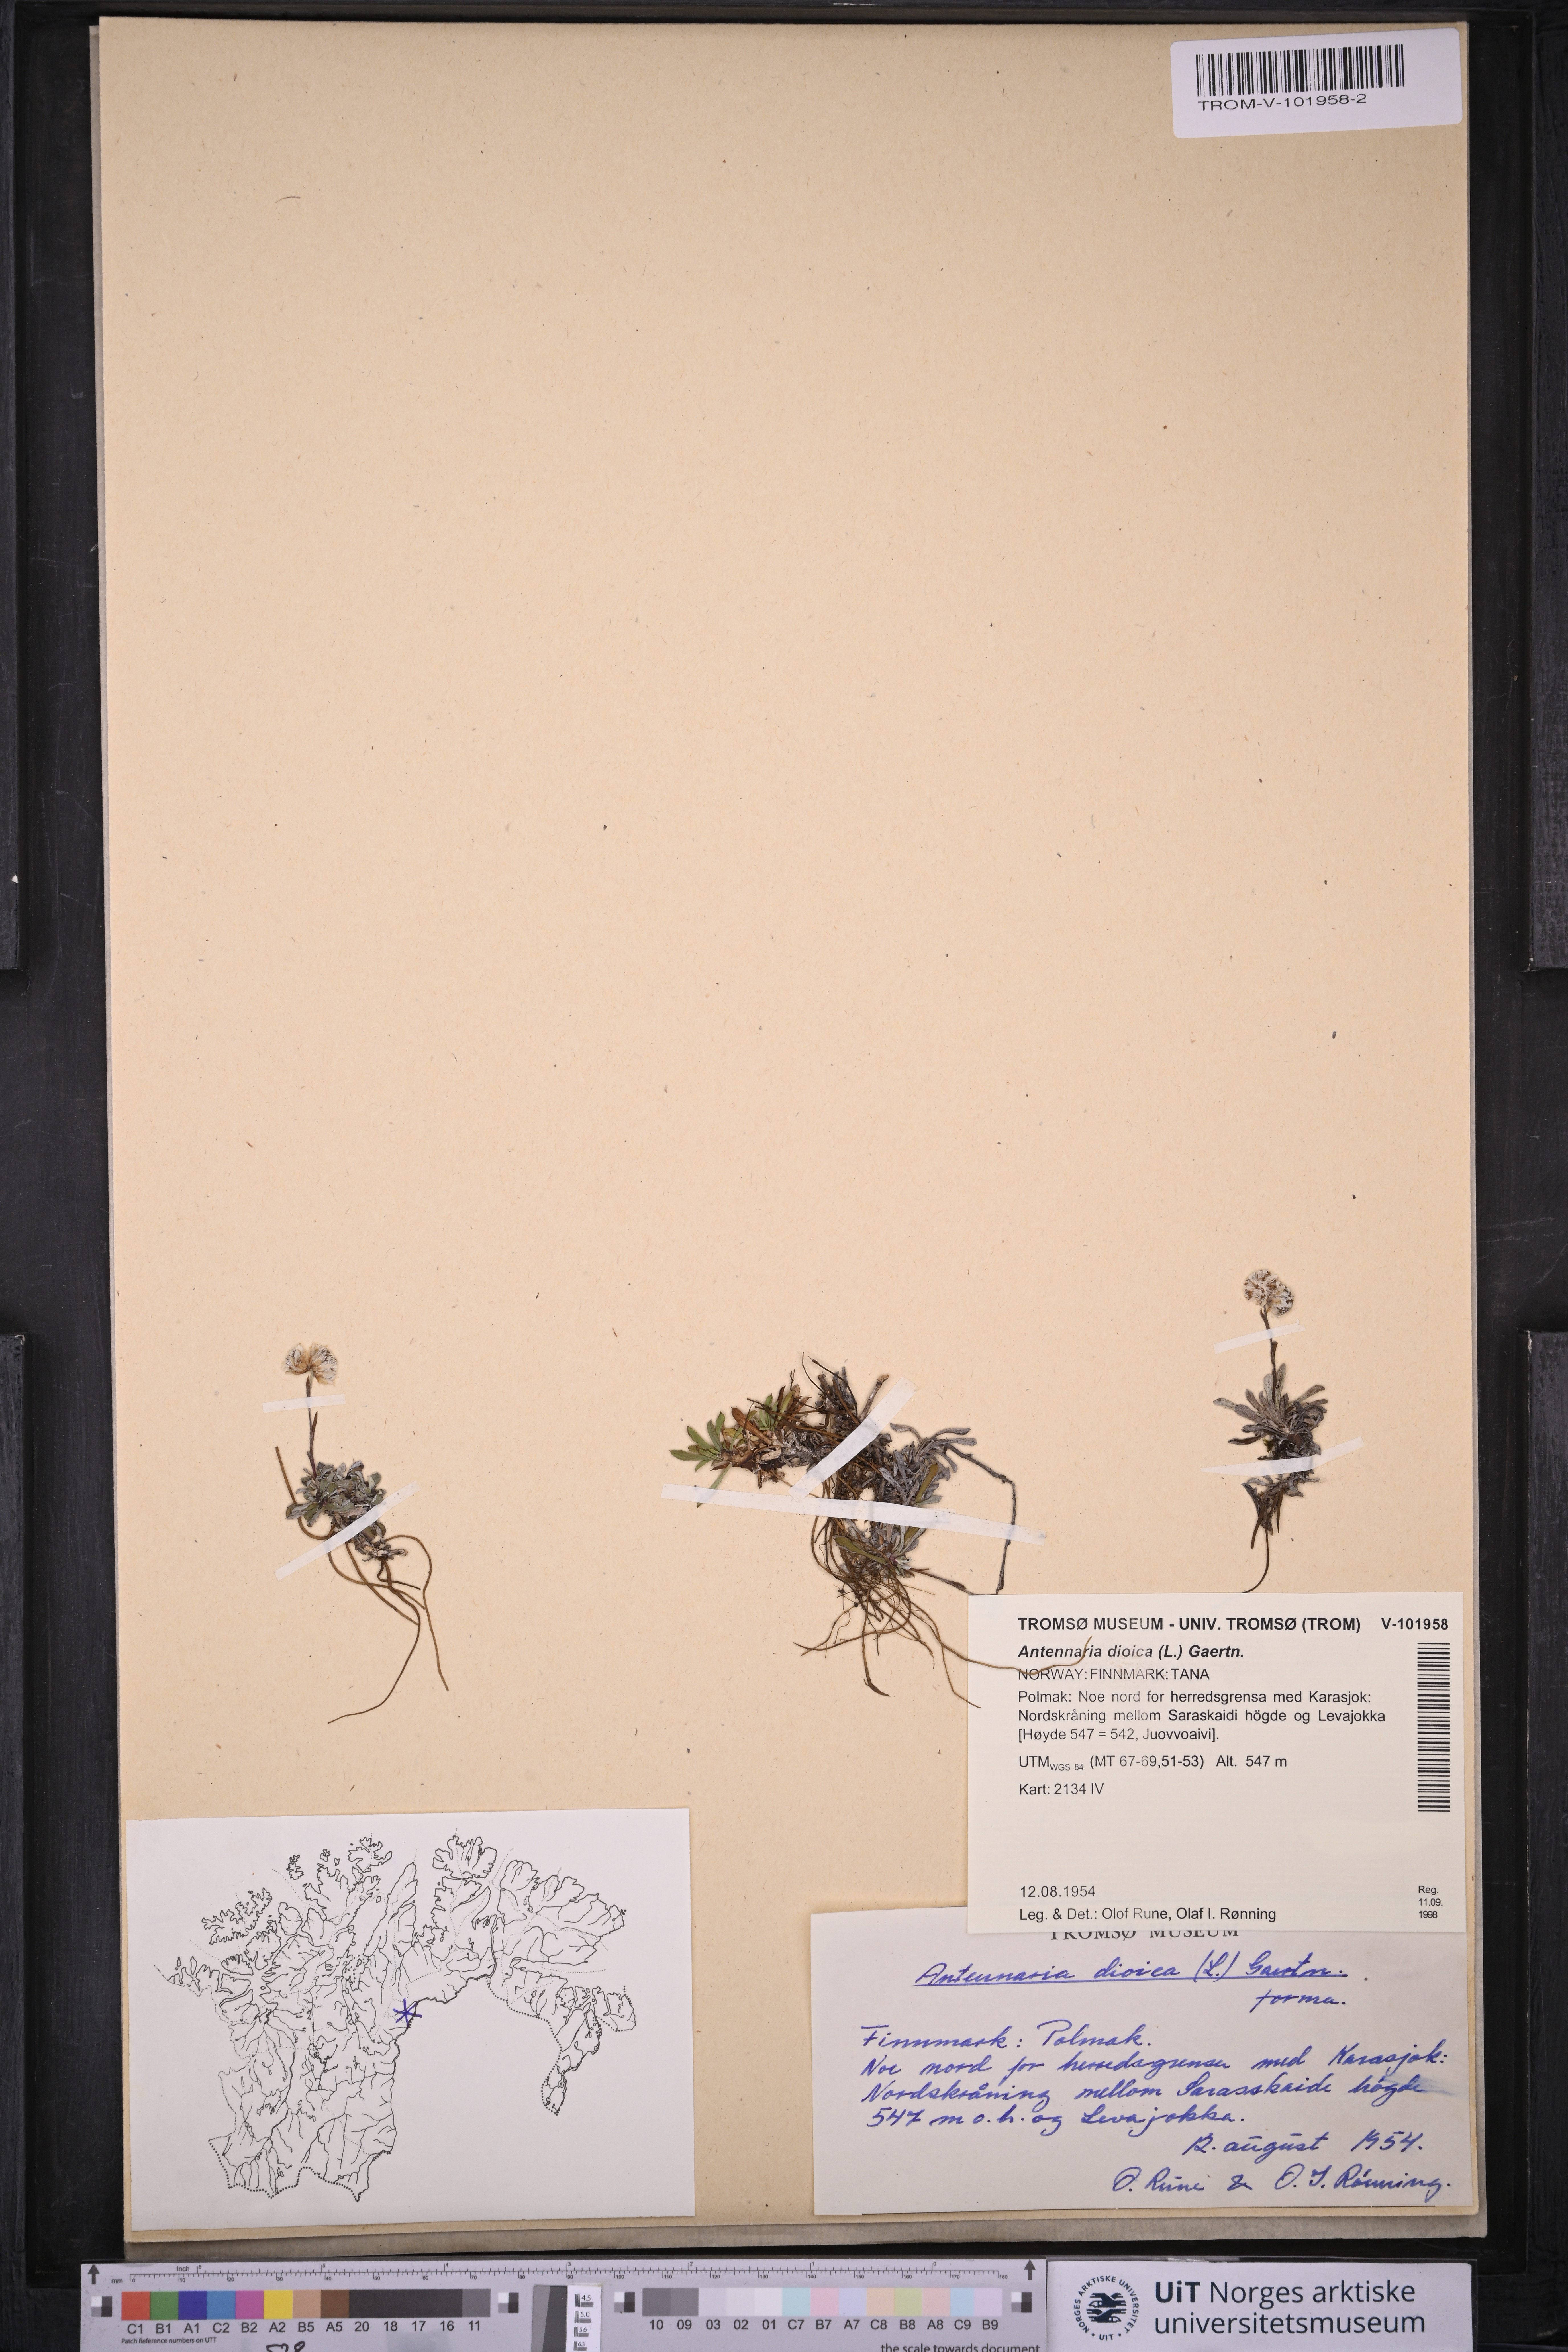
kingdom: Plantae
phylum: Tracheophyta
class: Magnoliopsida
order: Asterales
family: Asteraceae
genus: Antennaria
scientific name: Antennaria dioica
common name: Mountain everlasting
